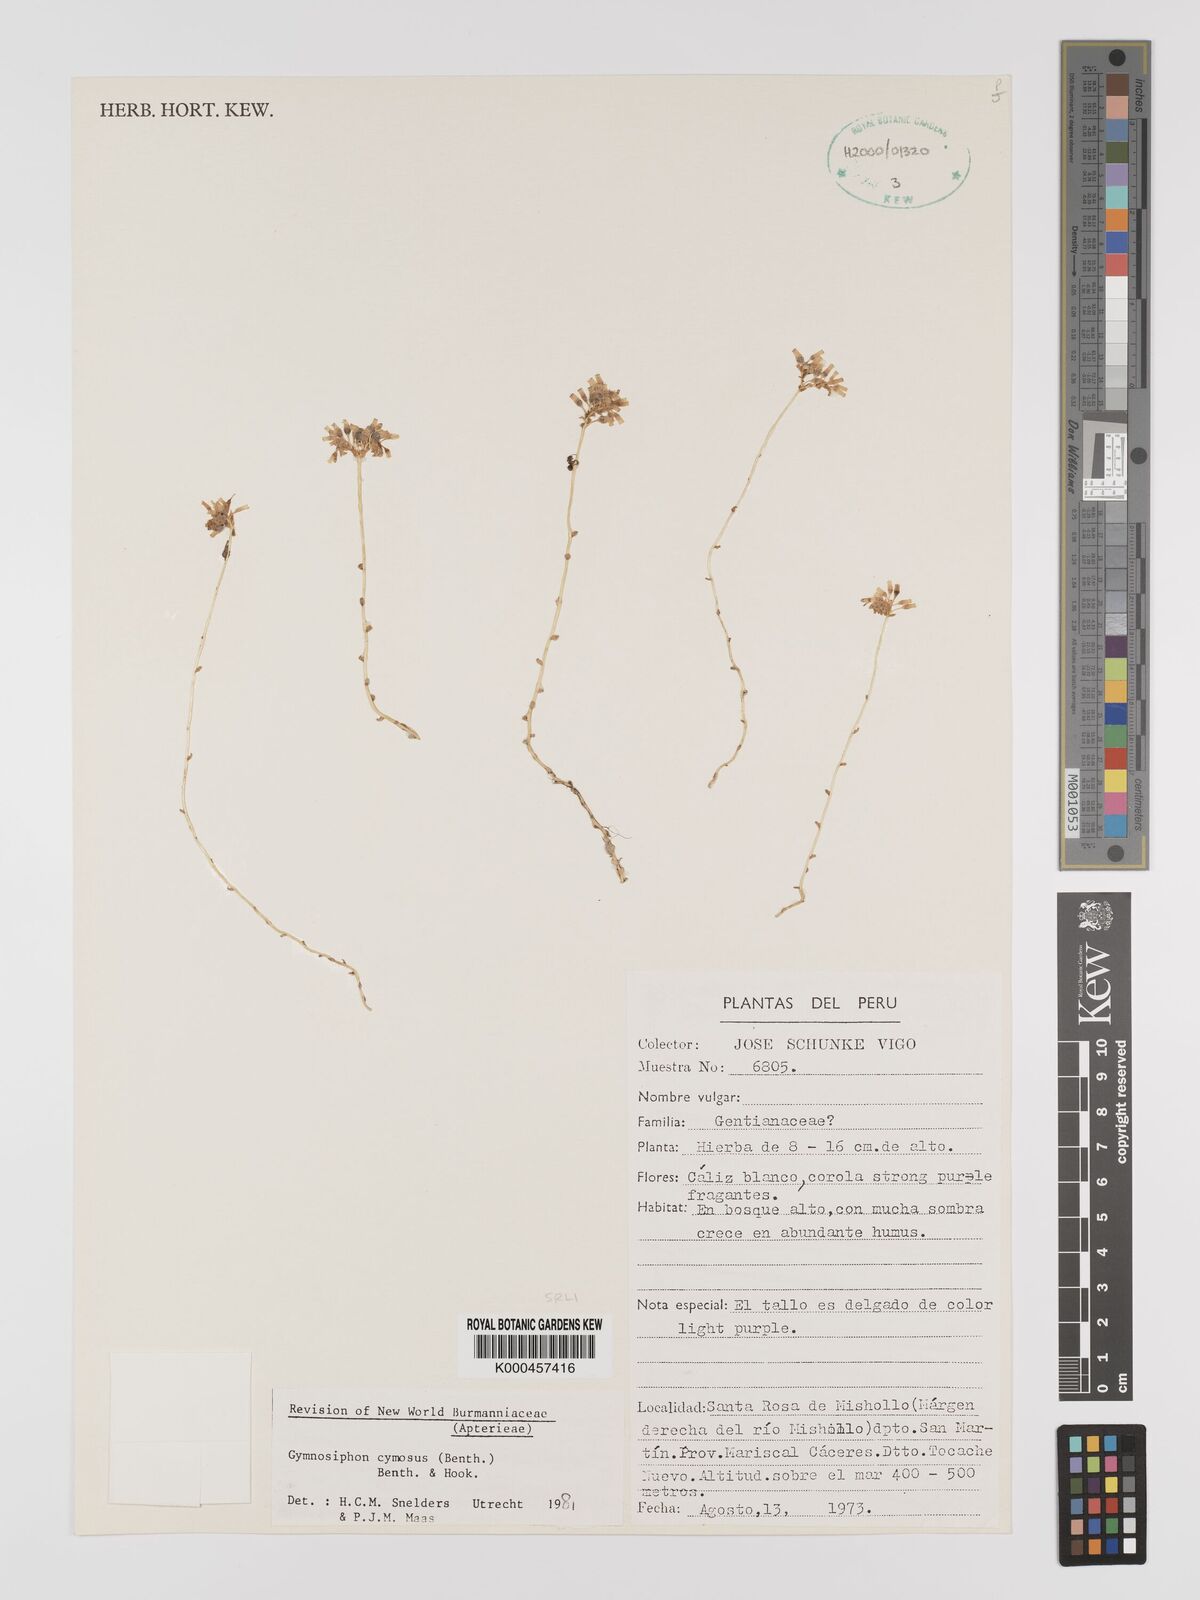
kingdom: Plantae
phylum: Tracheophyta
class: Liliopsida
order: Dioscoreales
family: Burmanniaceae
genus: Gymnosiphon
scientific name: Gymnosiphon cymosus
